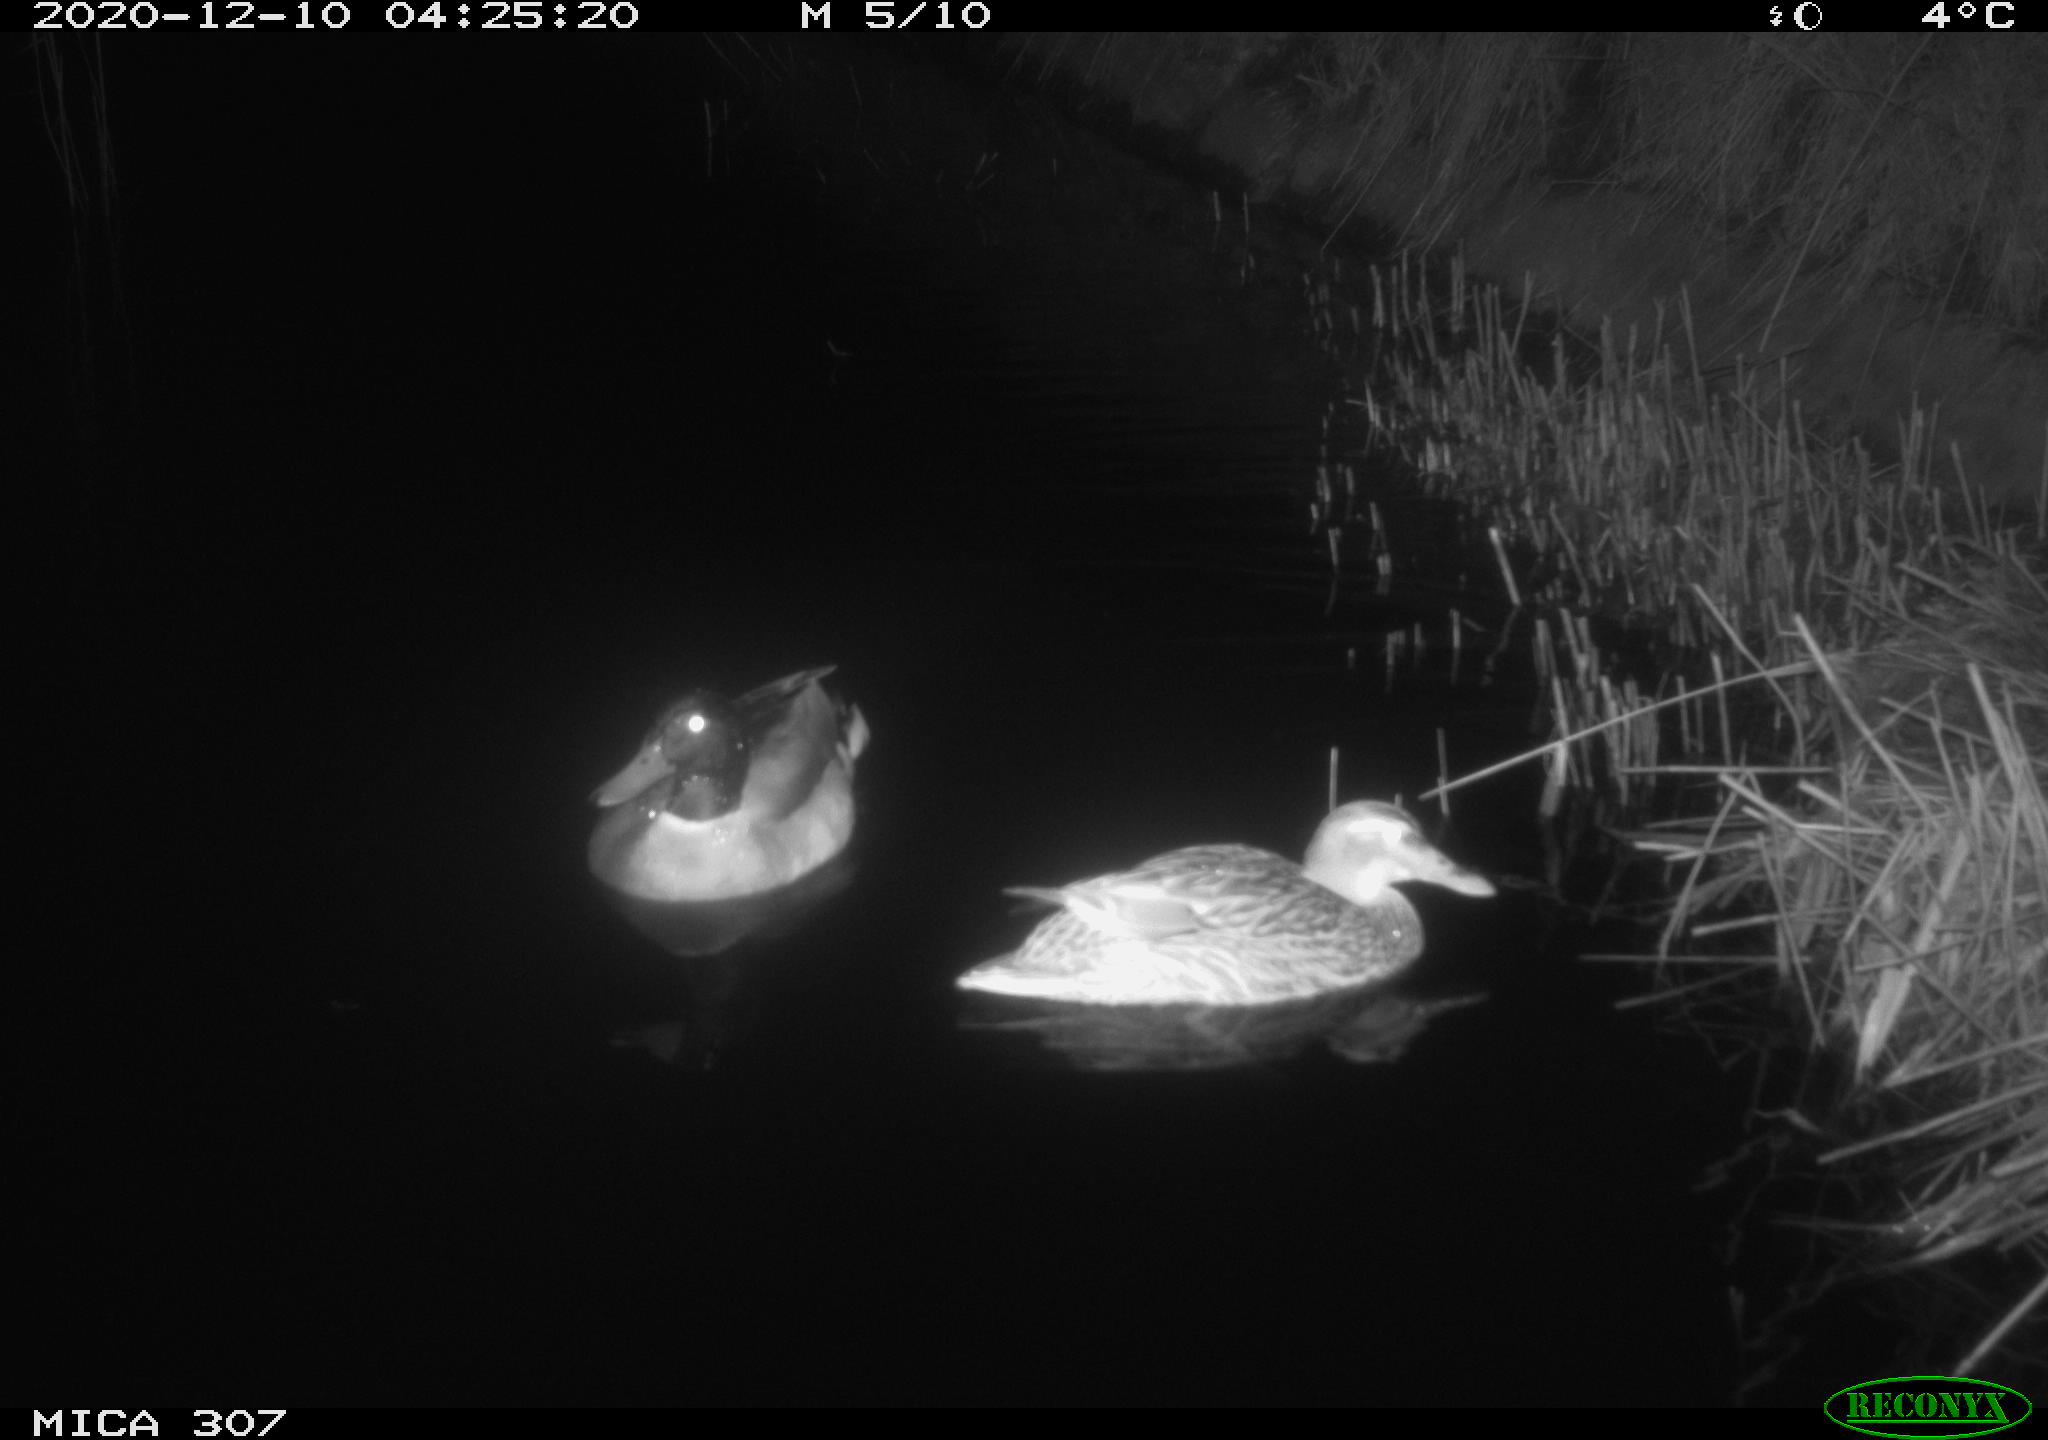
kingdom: Animalia
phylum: Chordata
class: Aves
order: Anseriformes
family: Anatidae
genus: Anas
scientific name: Anas platyrhynchos
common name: Mallard
